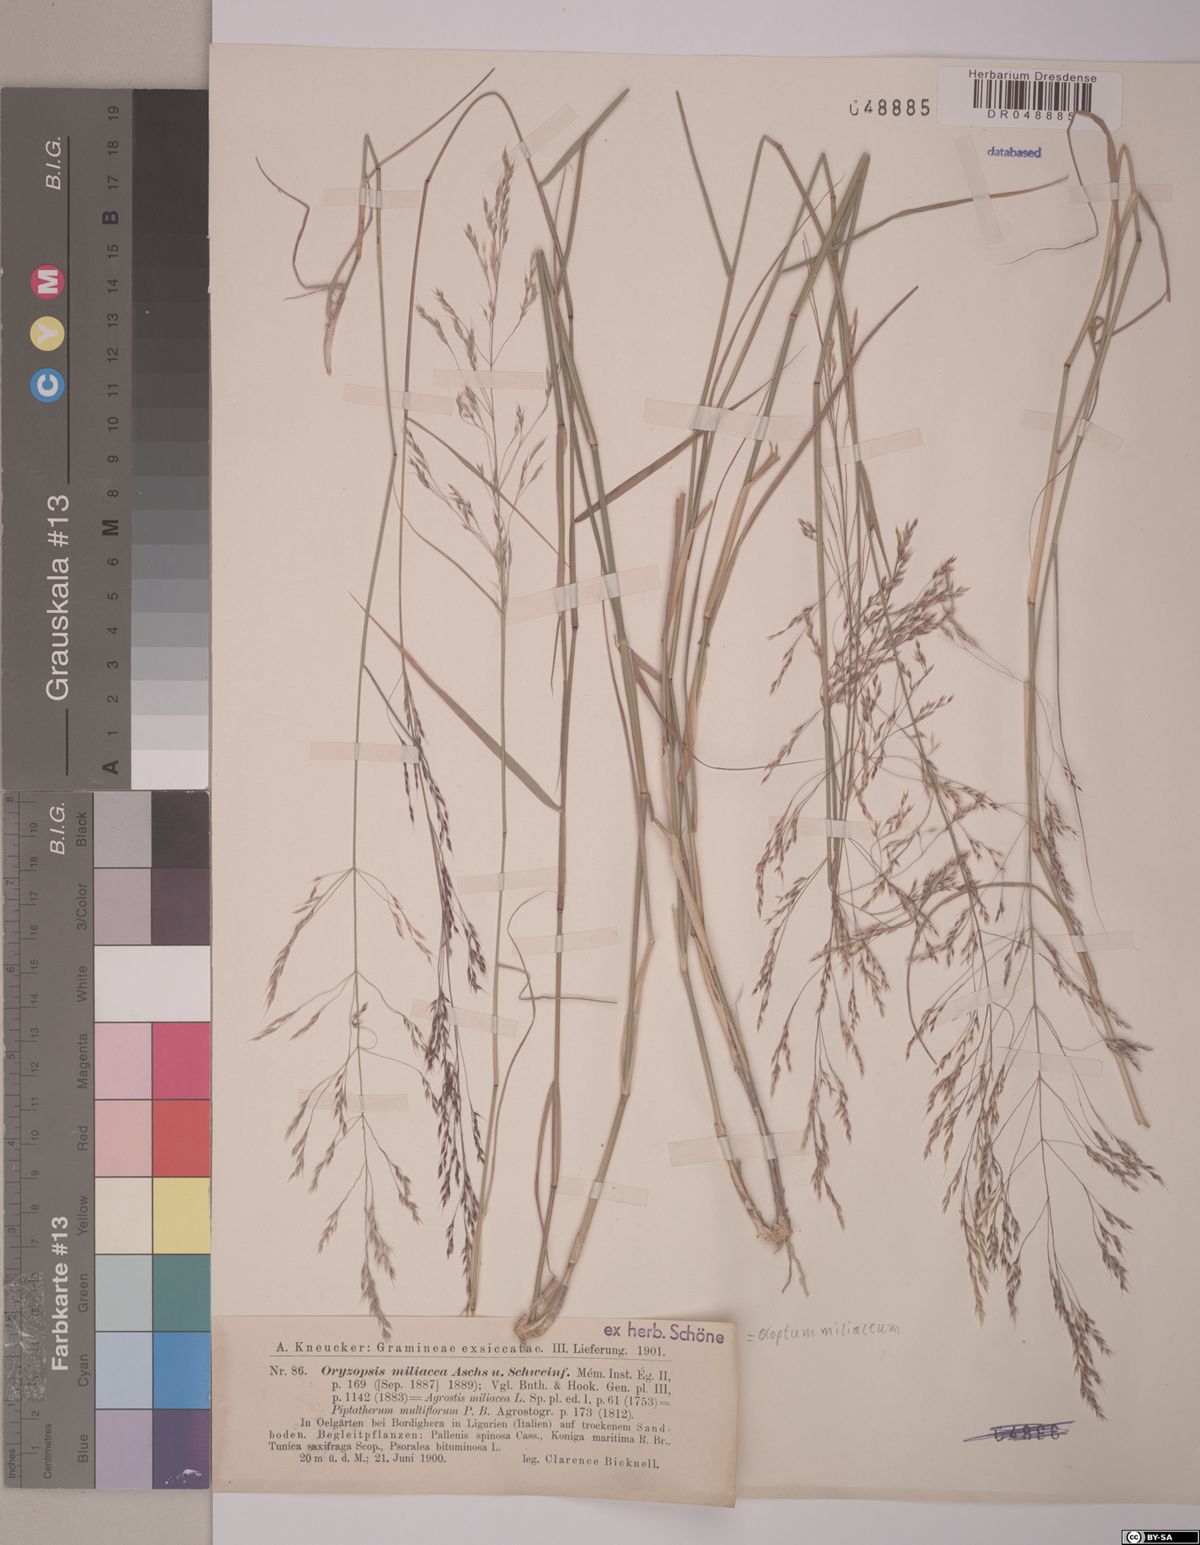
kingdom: Plantae
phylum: Tracheophyta
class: Liliopsida
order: Poales
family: Poaceae
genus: Oloptum
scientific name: Oloptum miliaceum
